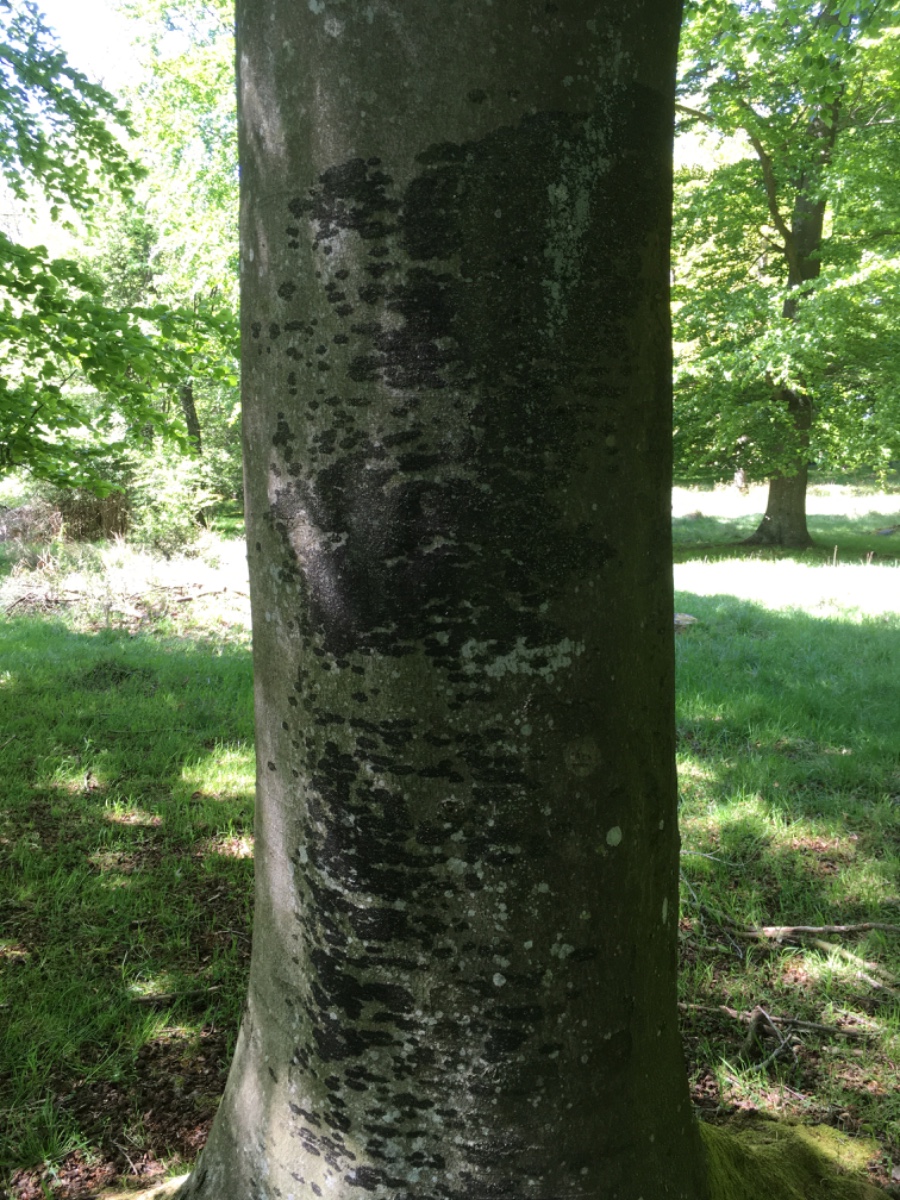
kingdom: Fungi
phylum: Ascomycota
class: Leotiomycetes
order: Rhytismatales
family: Ascodichaenaceae
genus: Ascodichaena
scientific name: Ascodichaena rugosa
